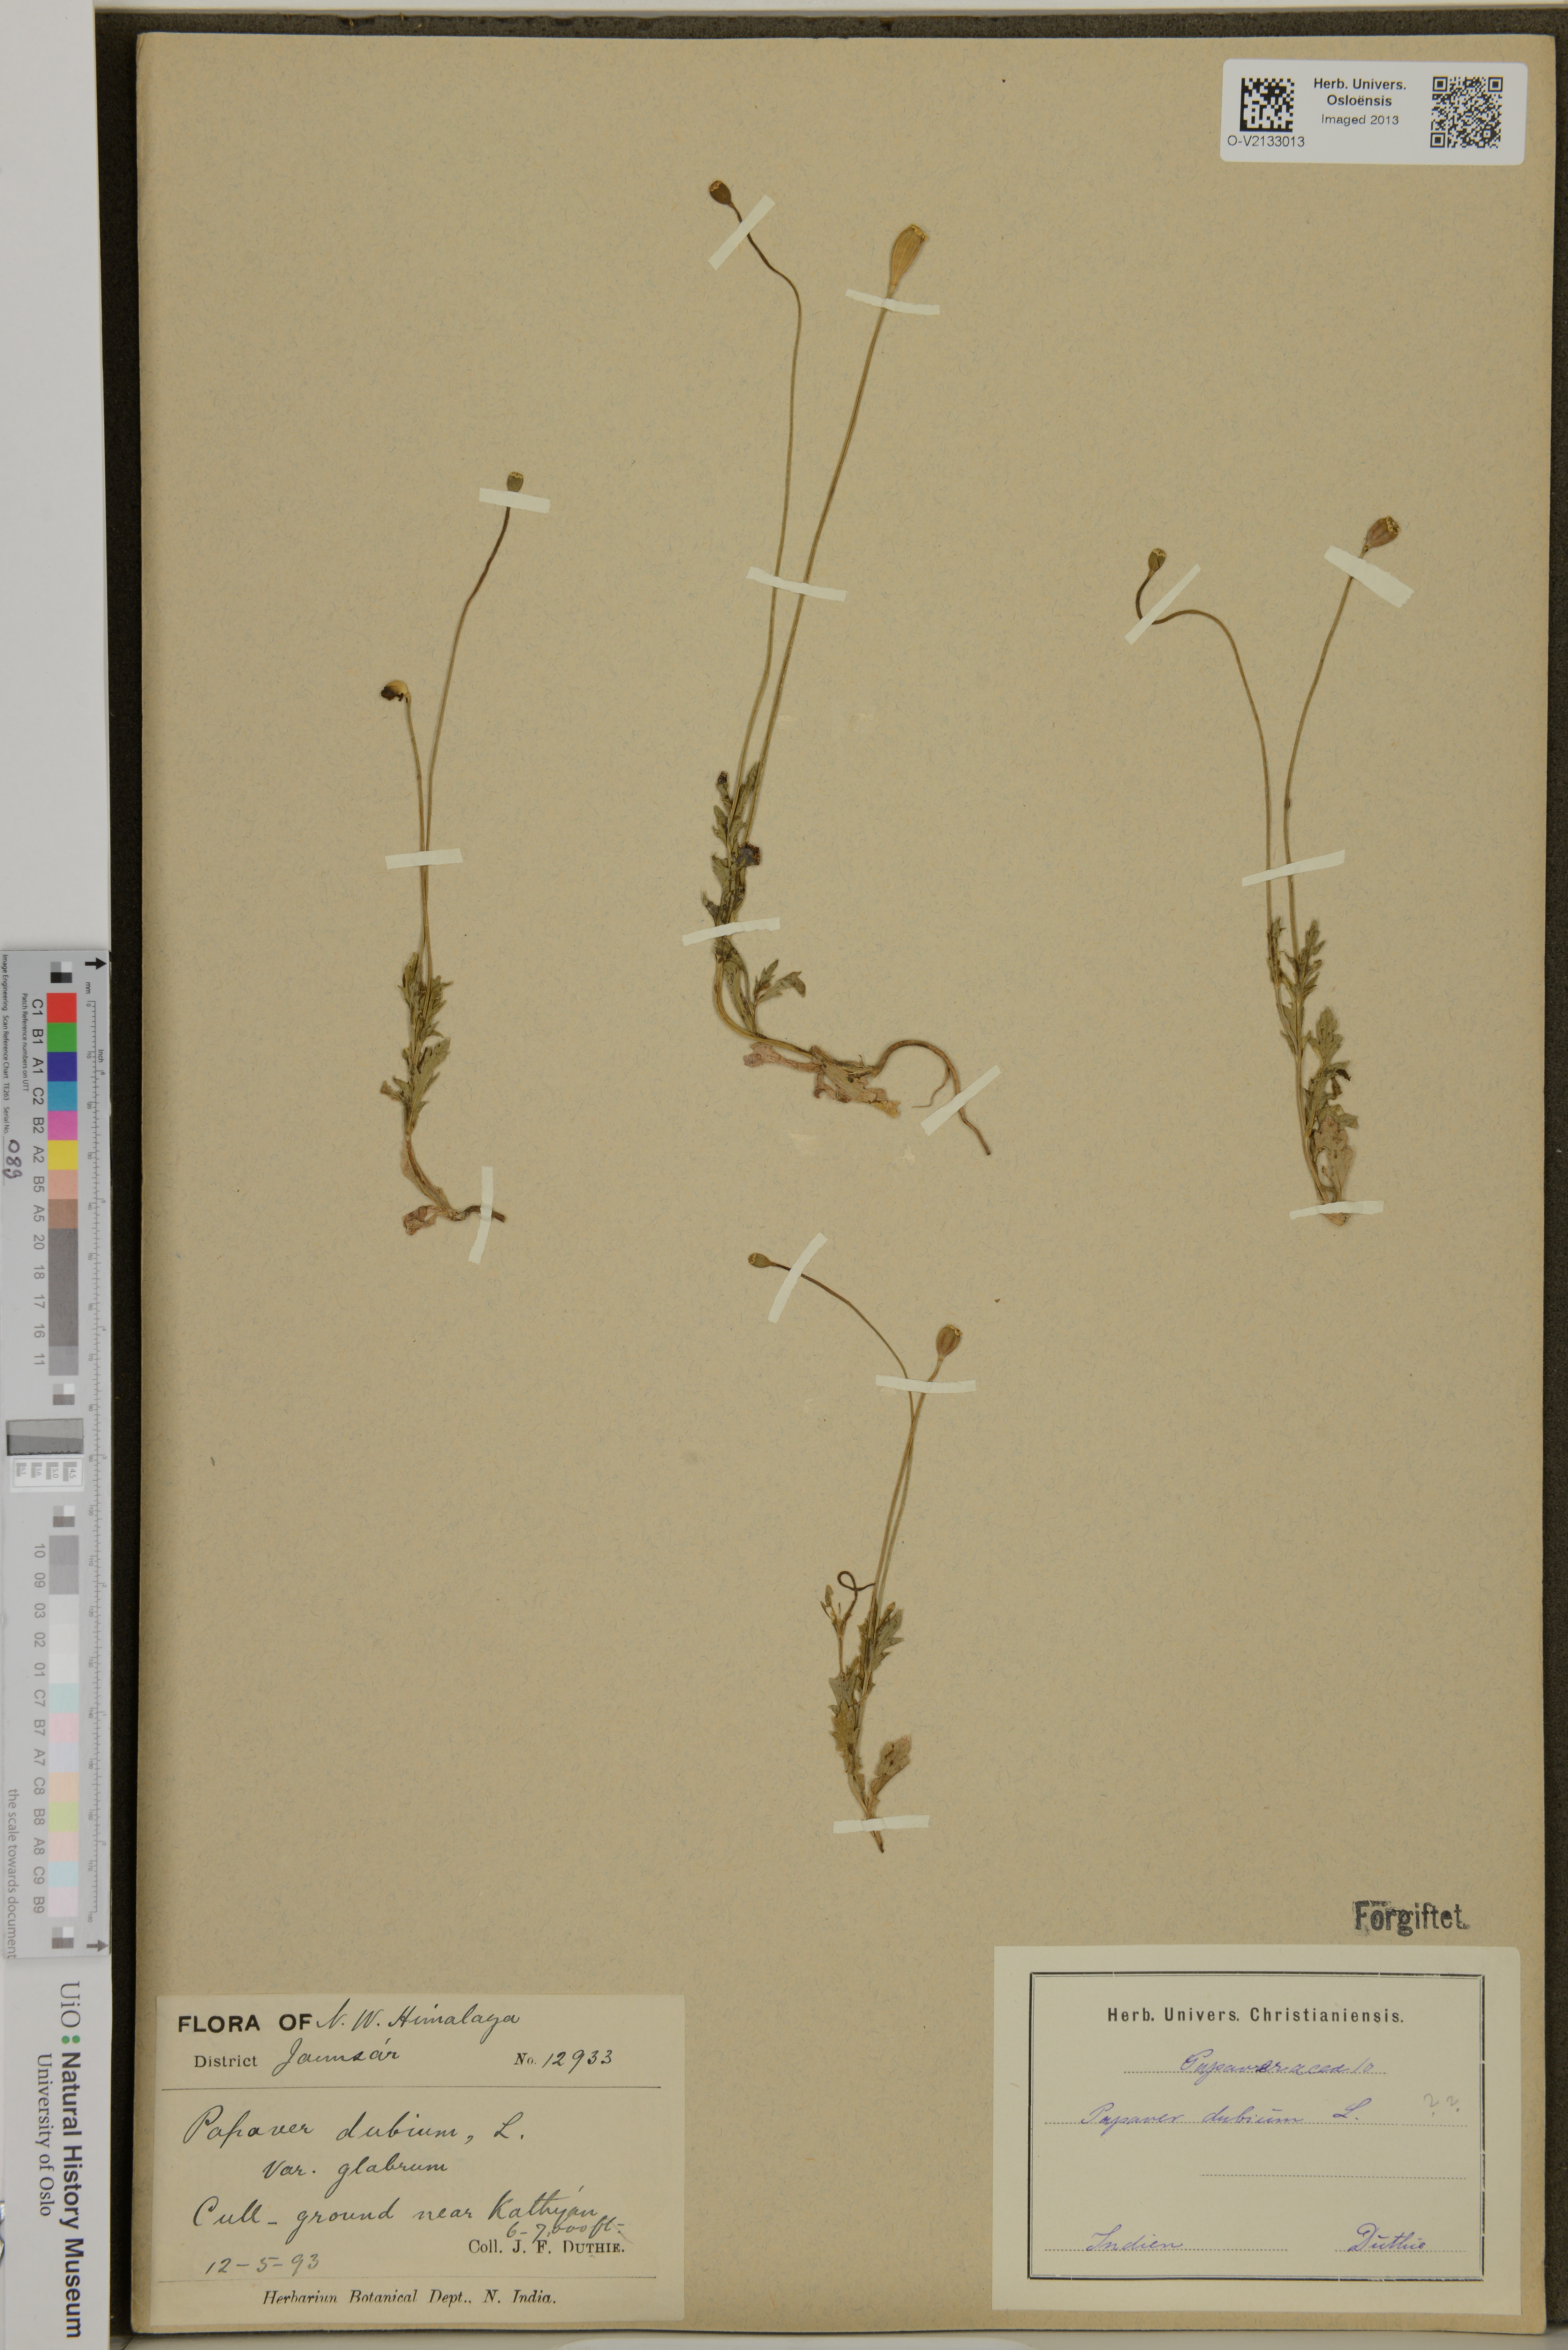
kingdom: Plantae
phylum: Tracheophyta
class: Magnoliopsida
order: Ranunculales
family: Papaveraceae
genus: Papaver
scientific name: Papaver dubium
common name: Long-headed poppy
